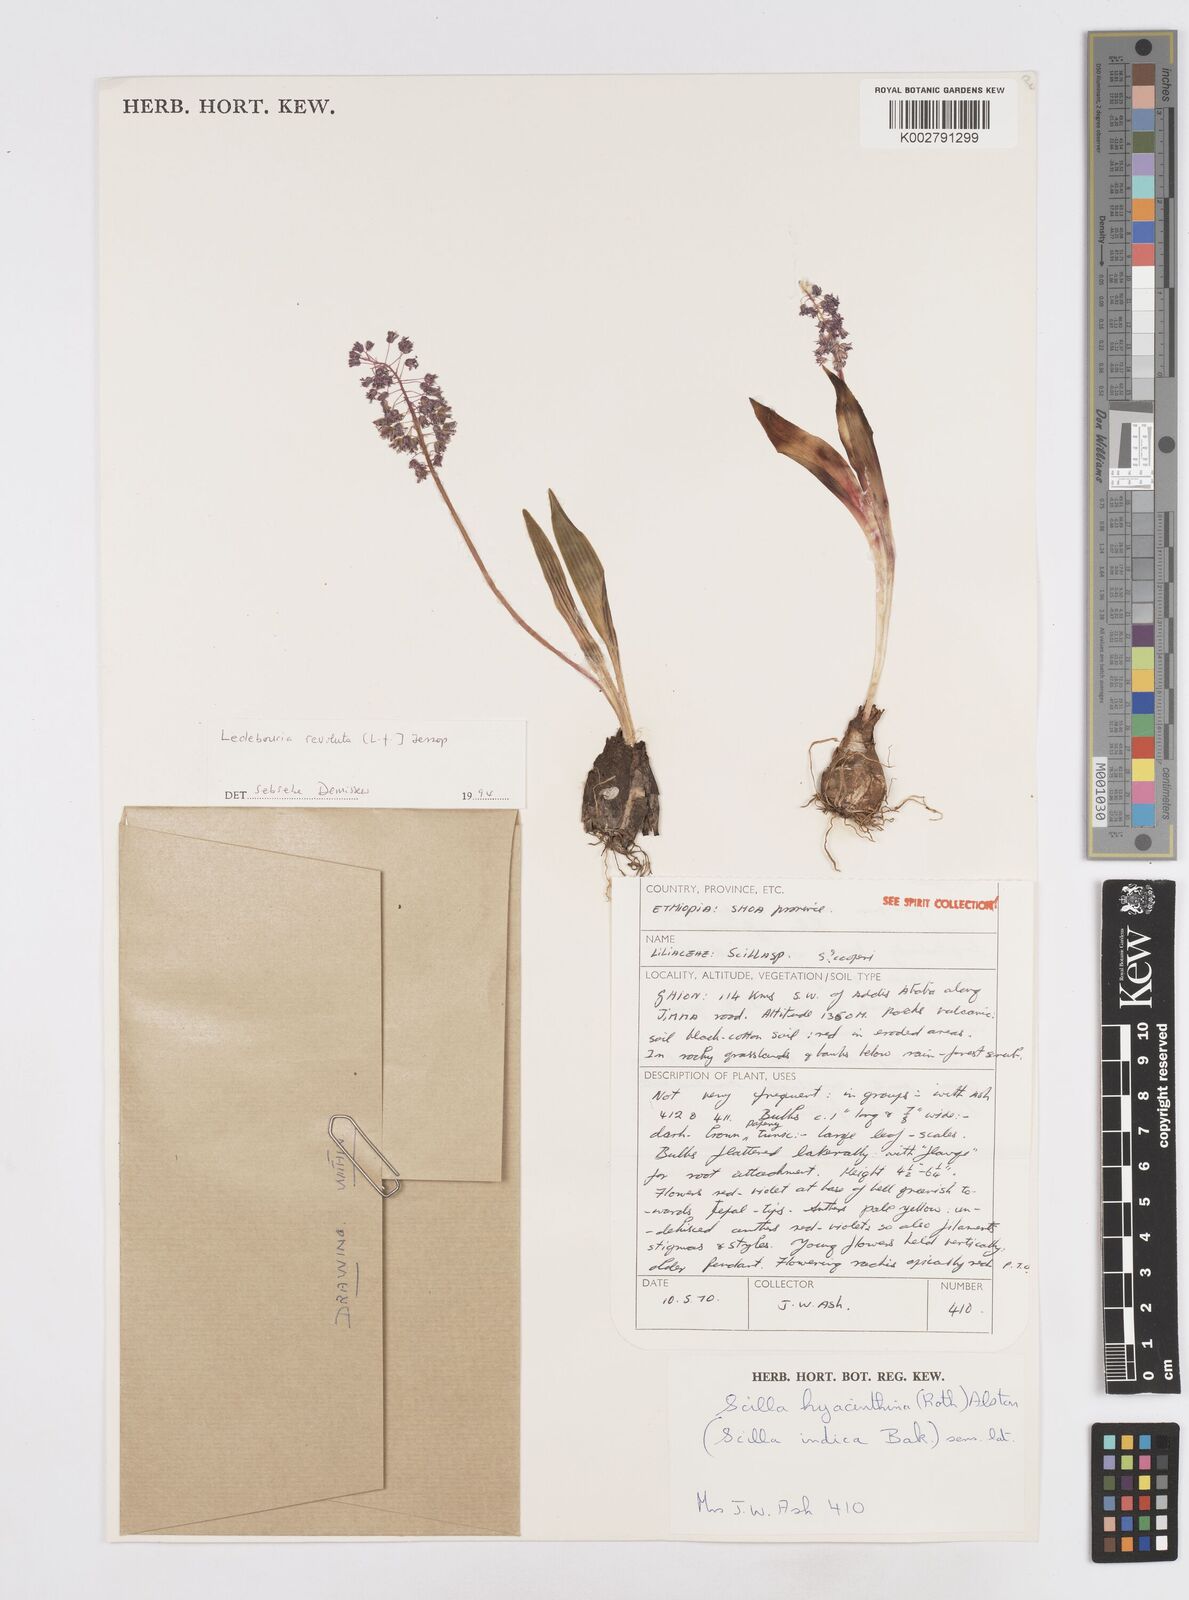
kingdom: Plantae
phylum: Tracheophyta
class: Liliopsida
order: Asparagales
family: Asparagaceae
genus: Ledebouria
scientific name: Ledebouria revoluta
